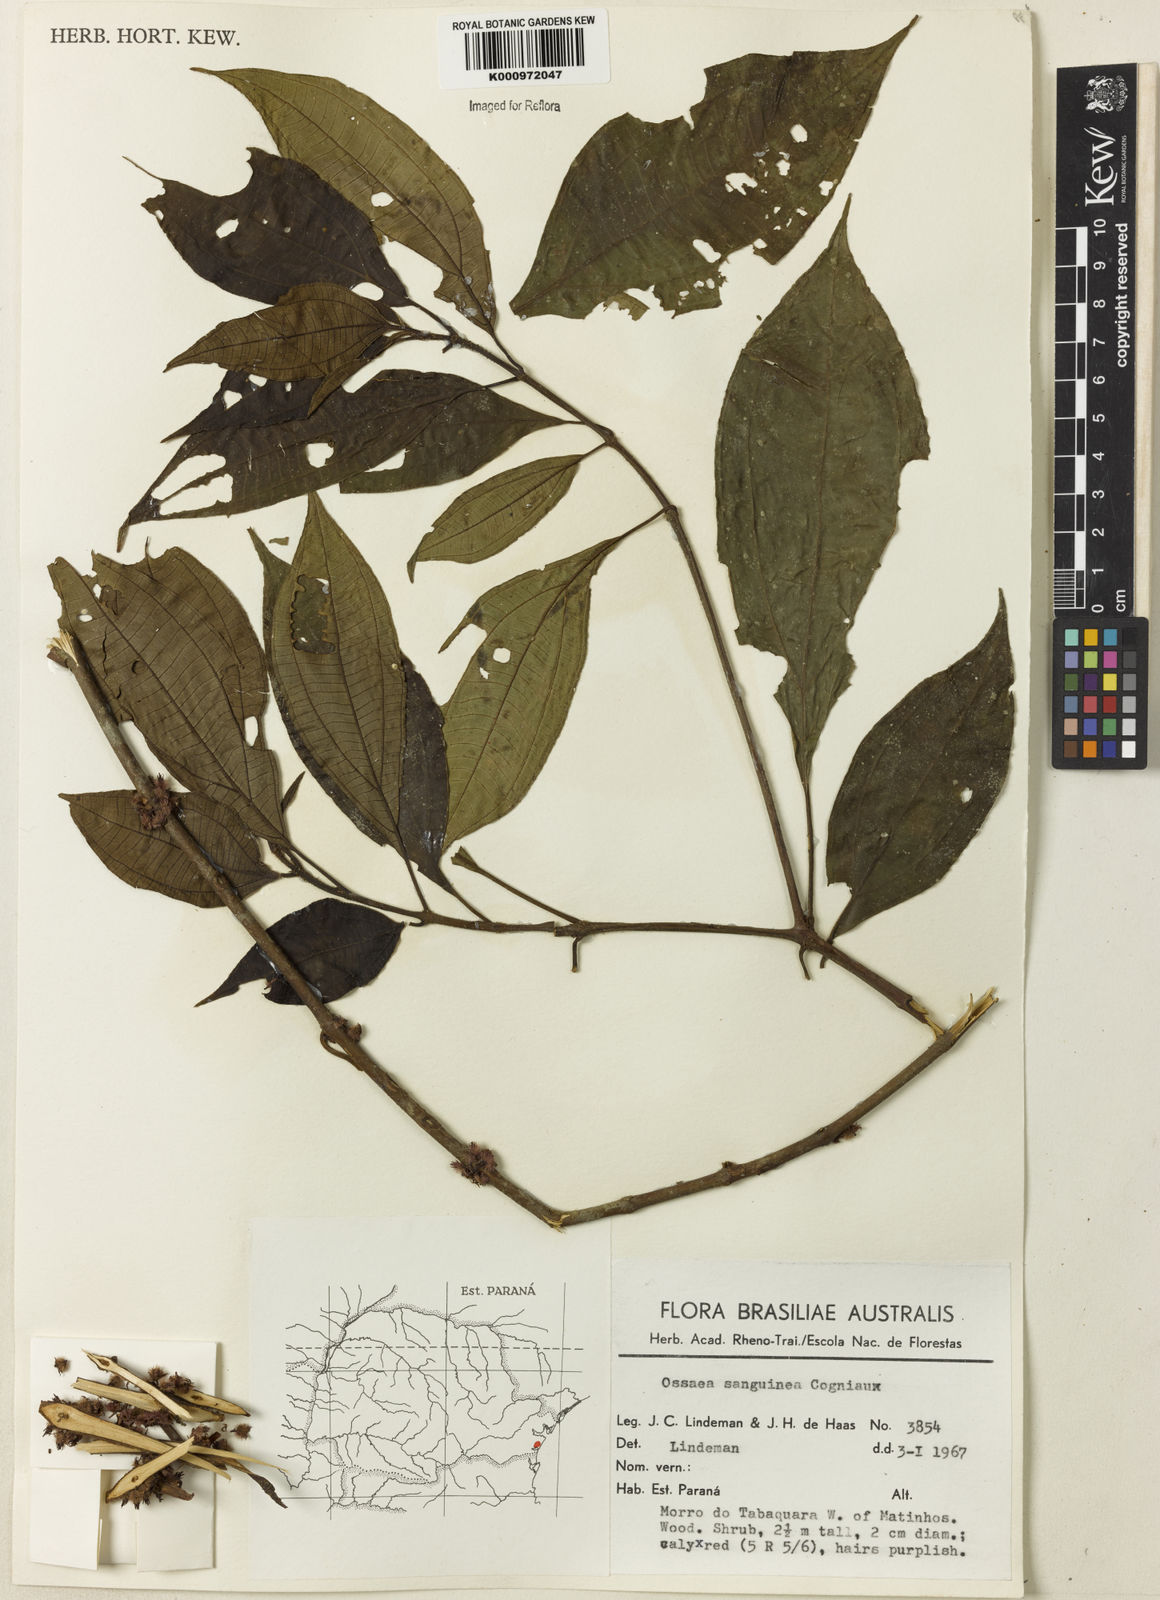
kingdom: Plantae
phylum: Tracheophyta
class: Magnoliopsida
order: Myrtales
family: Melastomataceae
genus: Miconia
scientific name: Miconia secunsanguinea
